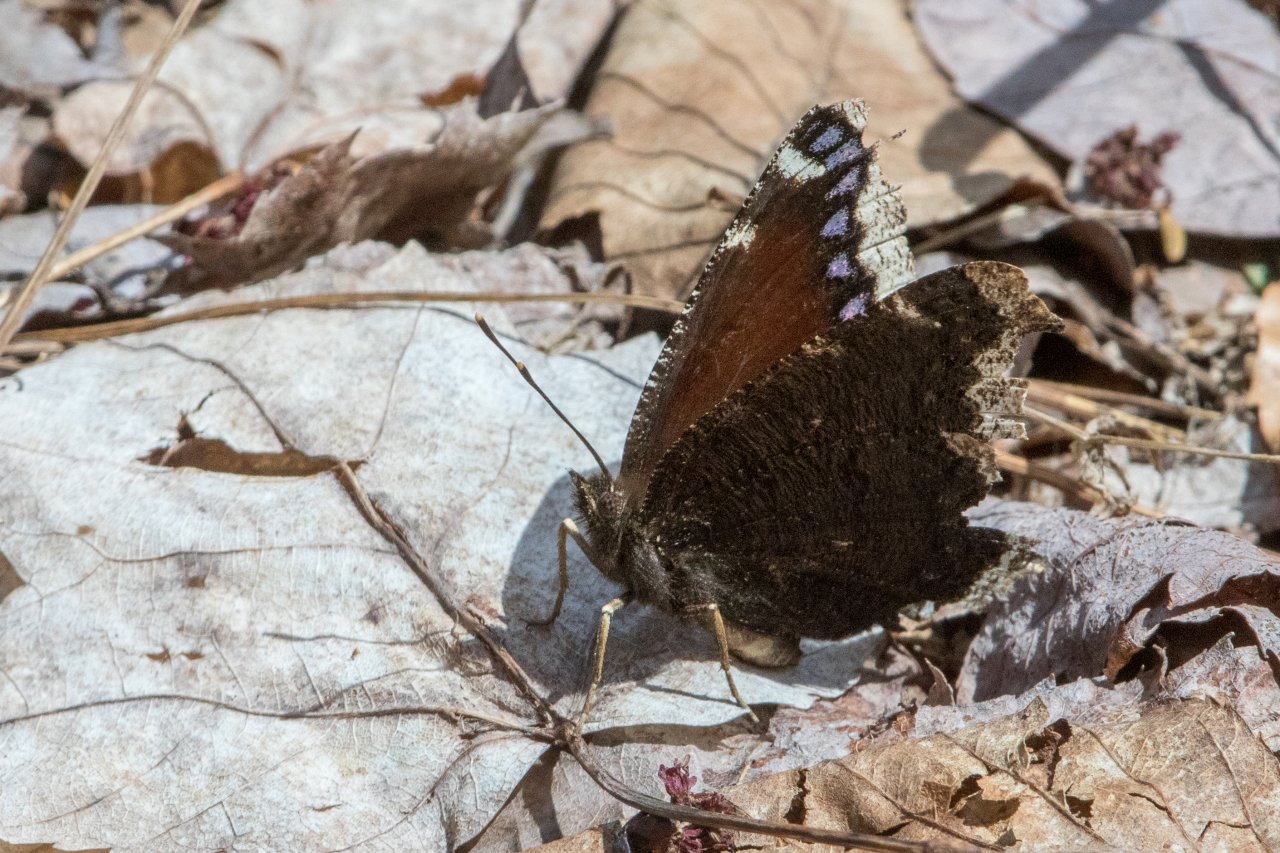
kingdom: Animalia
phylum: Arthropoda
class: Insecta
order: Lepidoptera
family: Nymphalidae
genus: Nymphalis
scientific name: Nymphalis antiopa
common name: Mourning Cloak
